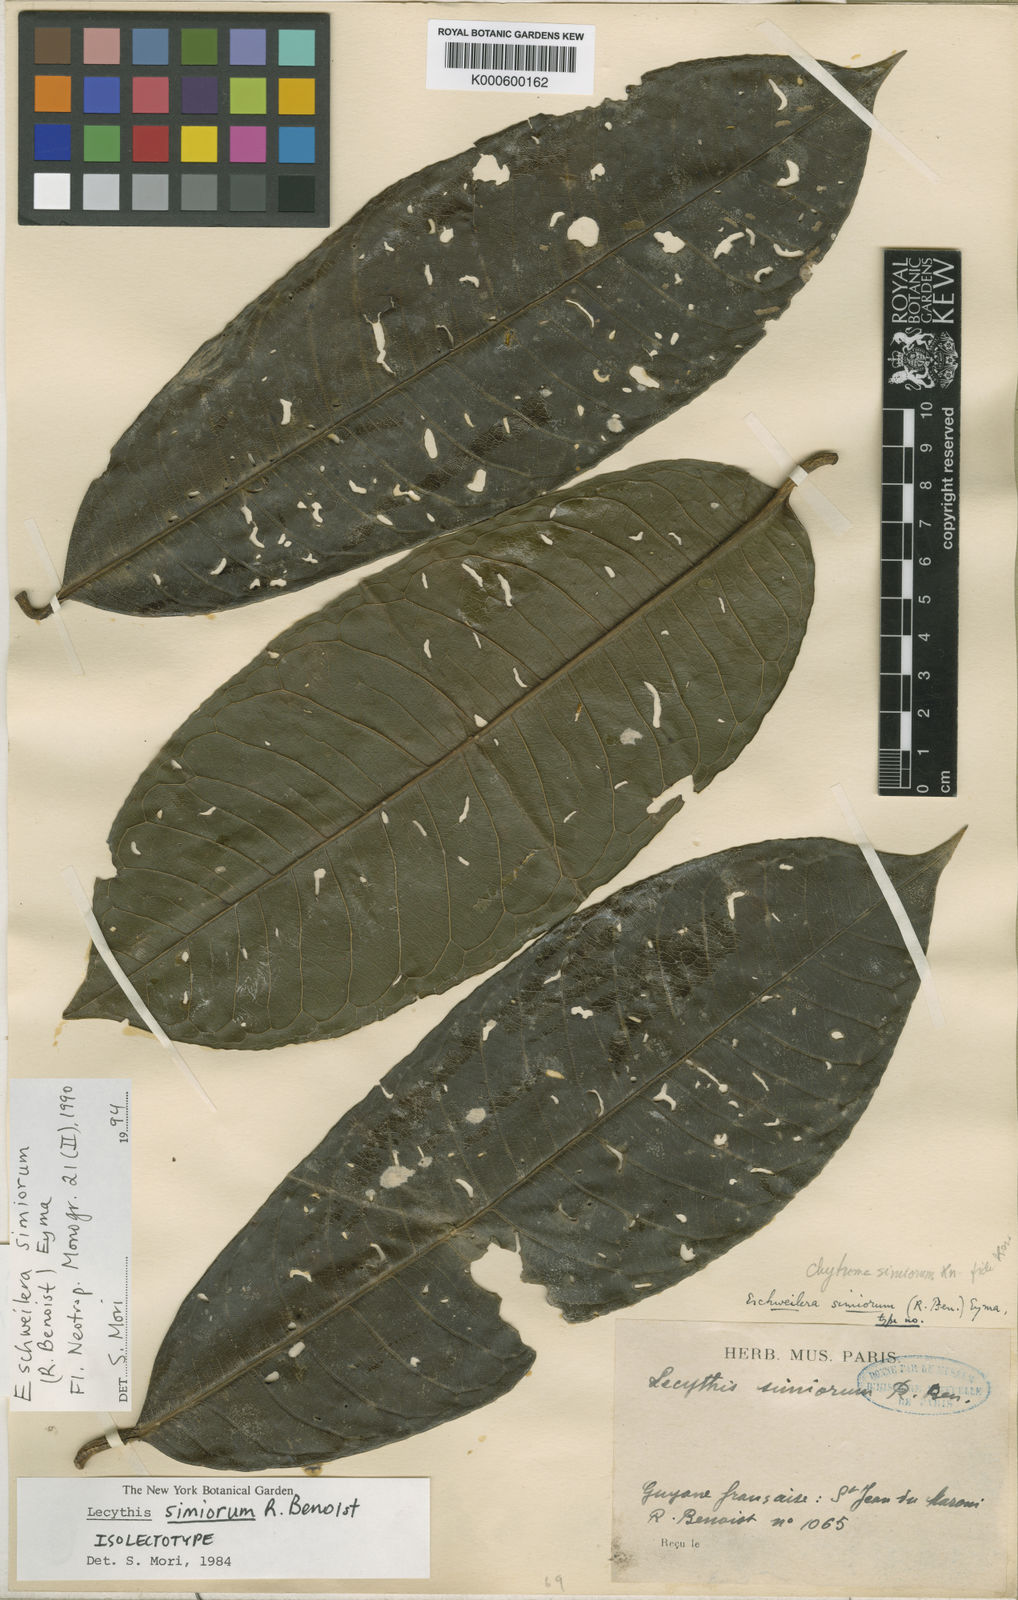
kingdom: Plantae
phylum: Tracheophyta
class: Magnoliopsida
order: Ericales
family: Lecythidaceae
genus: Eschweilera
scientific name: Eschweilera simiorum
